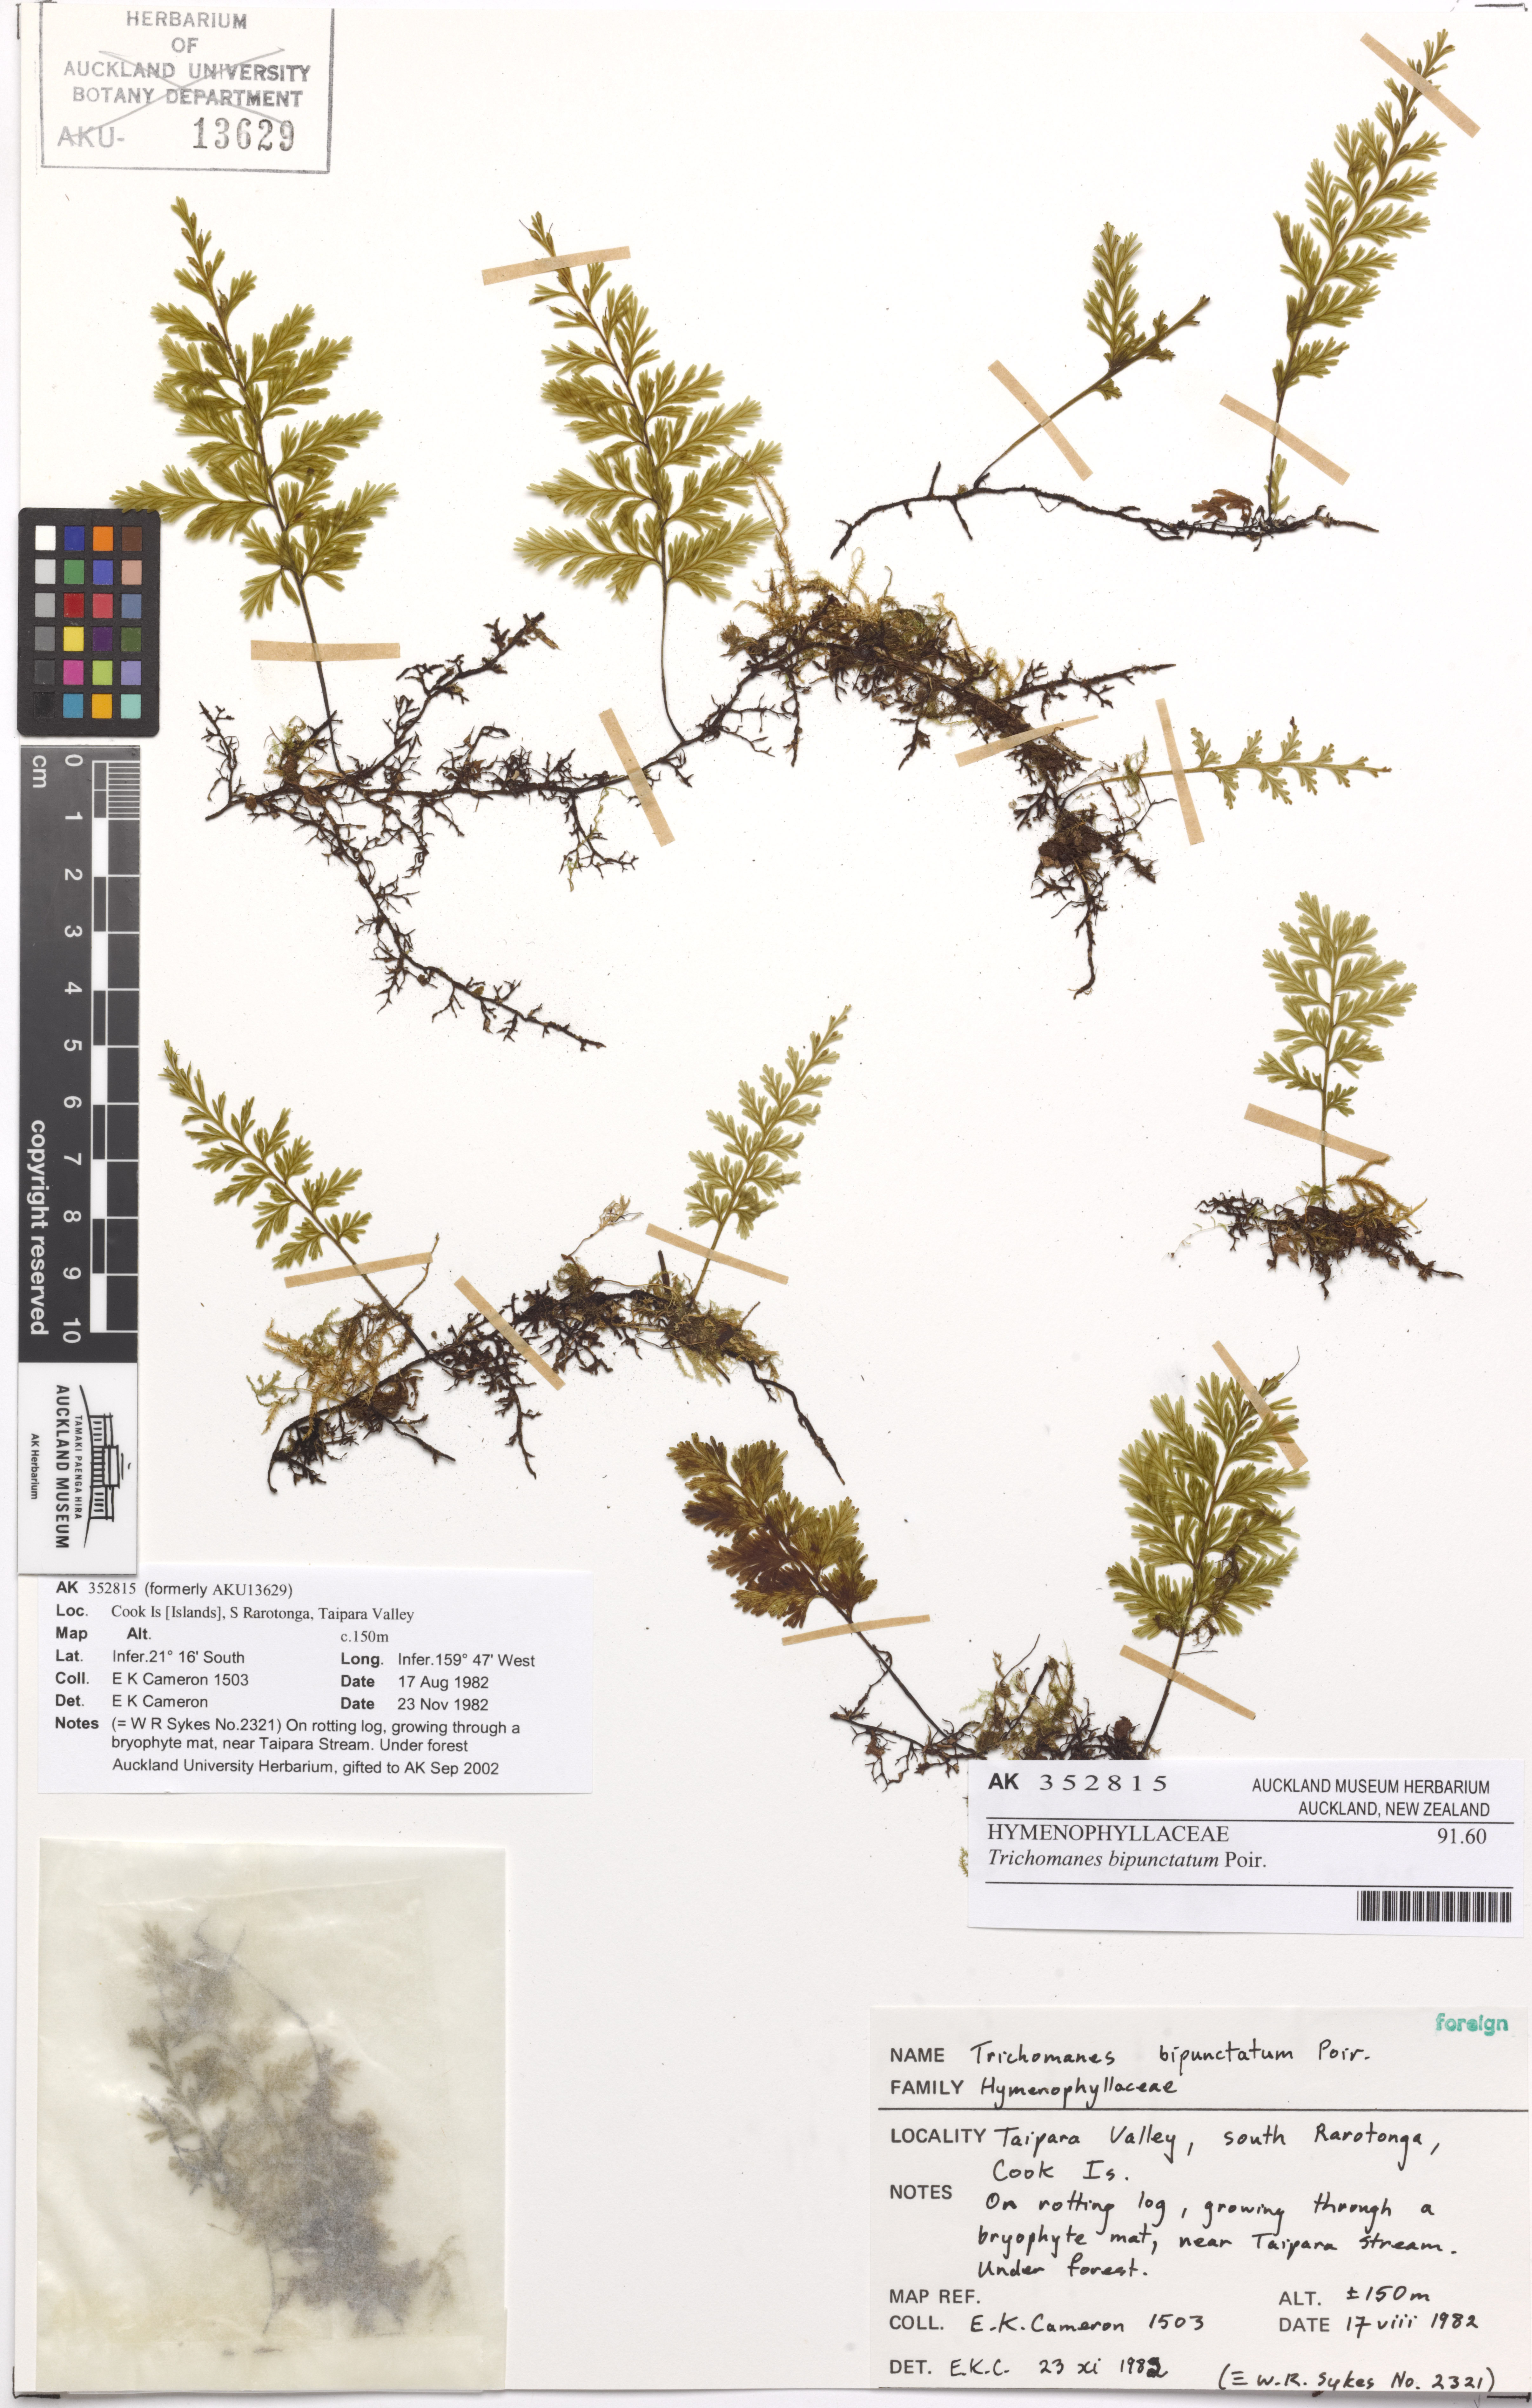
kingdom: Plantae
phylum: Tracheophyta
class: Polypodiopsida
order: Hymenophyllales
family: Hymenophyllaceae
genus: Crepidomanes
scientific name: Crepidomanes bipunctatum
